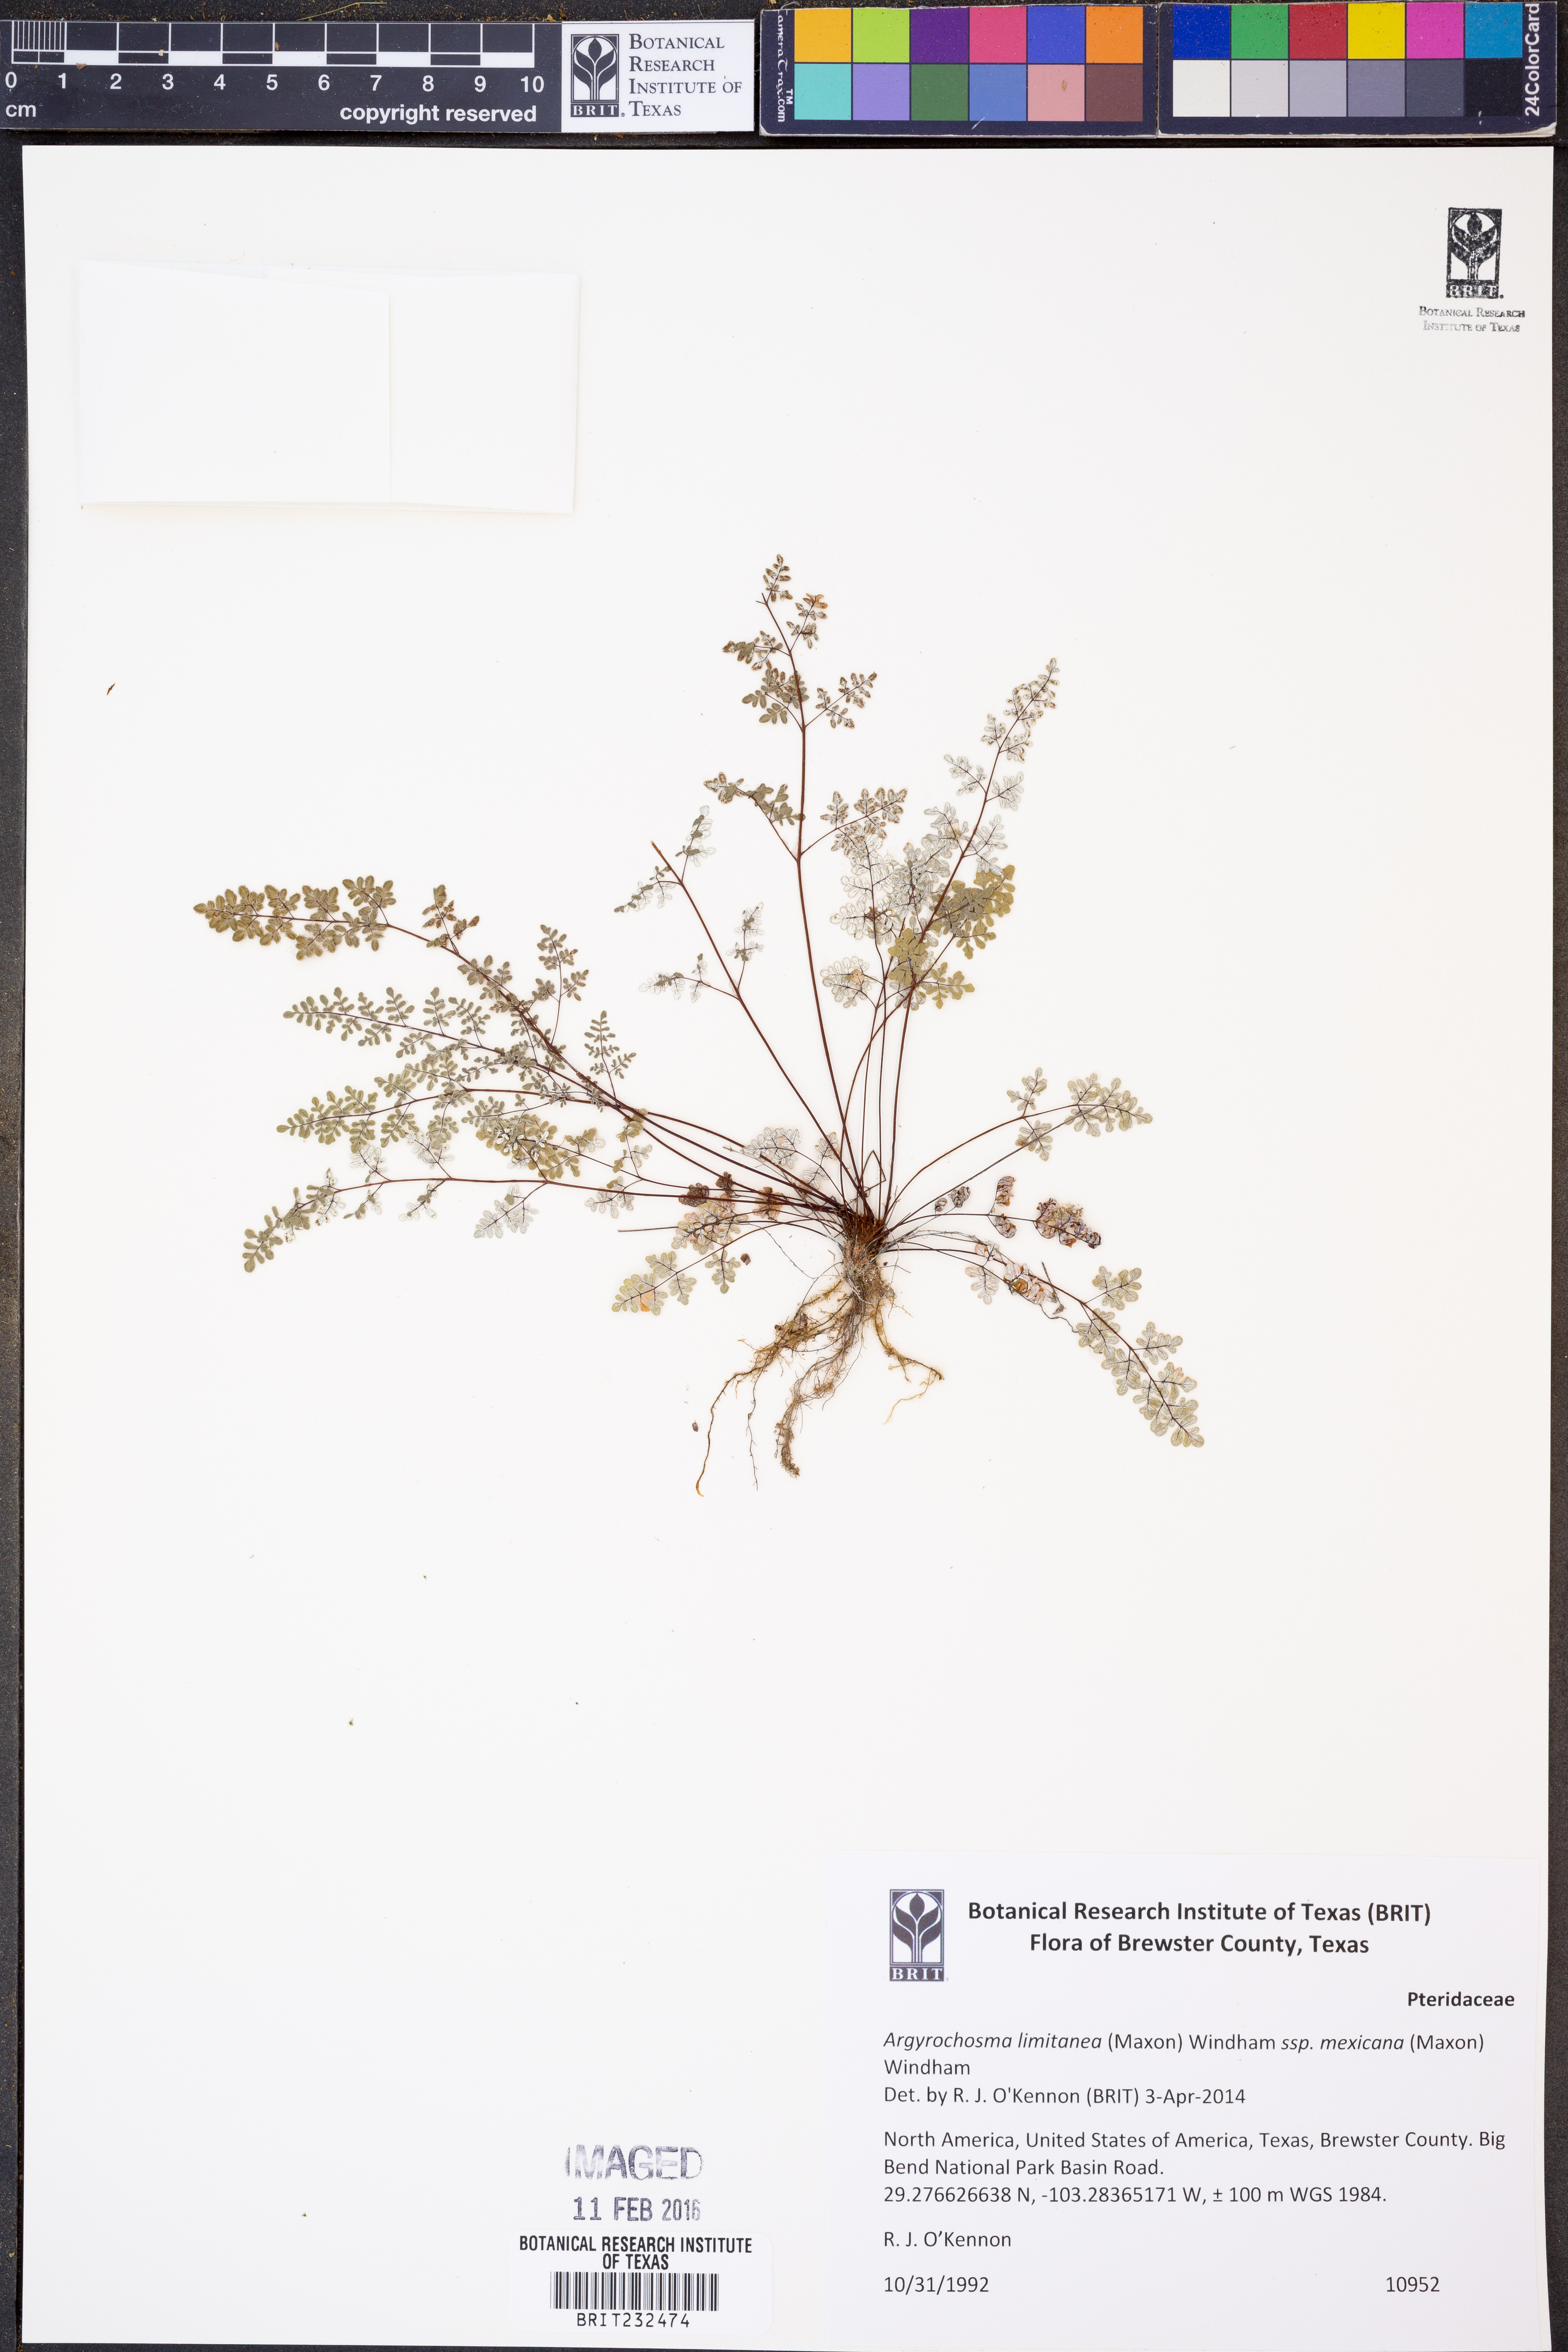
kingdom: Plantae
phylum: Tracheophyta
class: Polypodiopsida
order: Polypodiales
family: Pteridaceae
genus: Argyrochosma
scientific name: Argyrochosma limitanea
